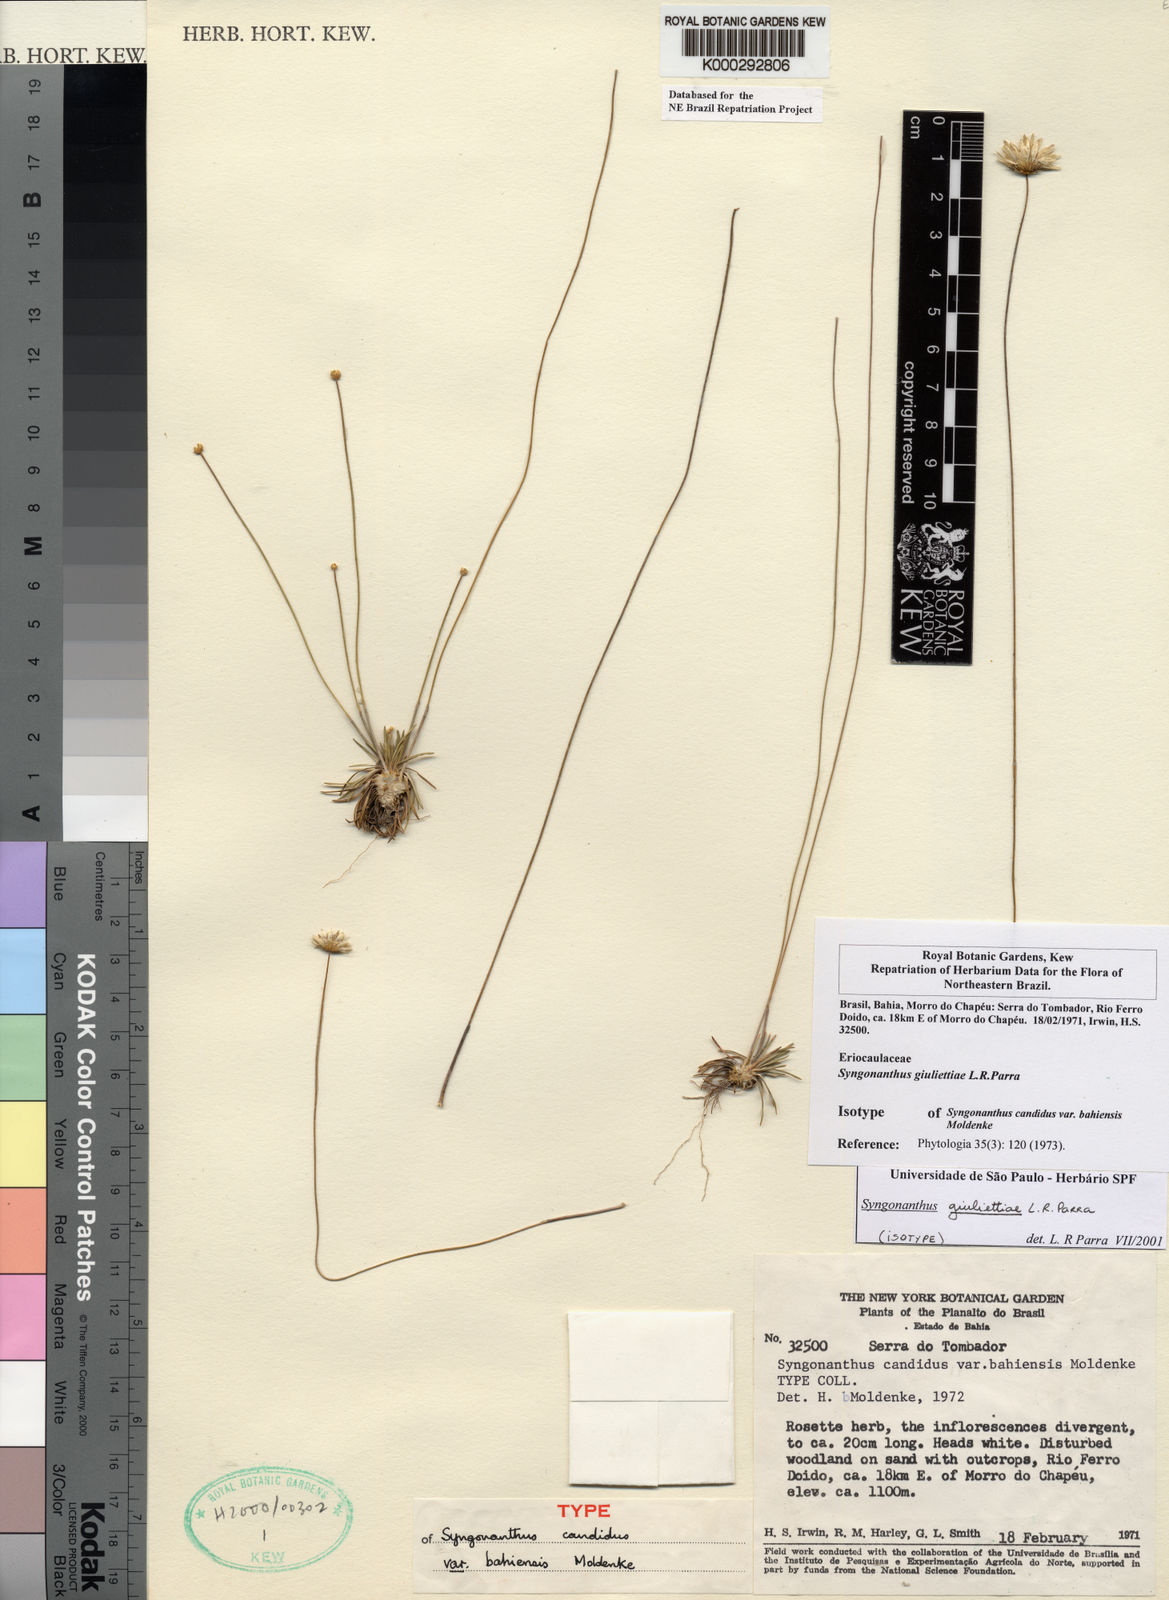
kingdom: Plantae
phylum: Tracheophyta
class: Liliopsida
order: Poales
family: Eriocaulaceae
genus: Syngonanthus
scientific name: Syngonanthus
